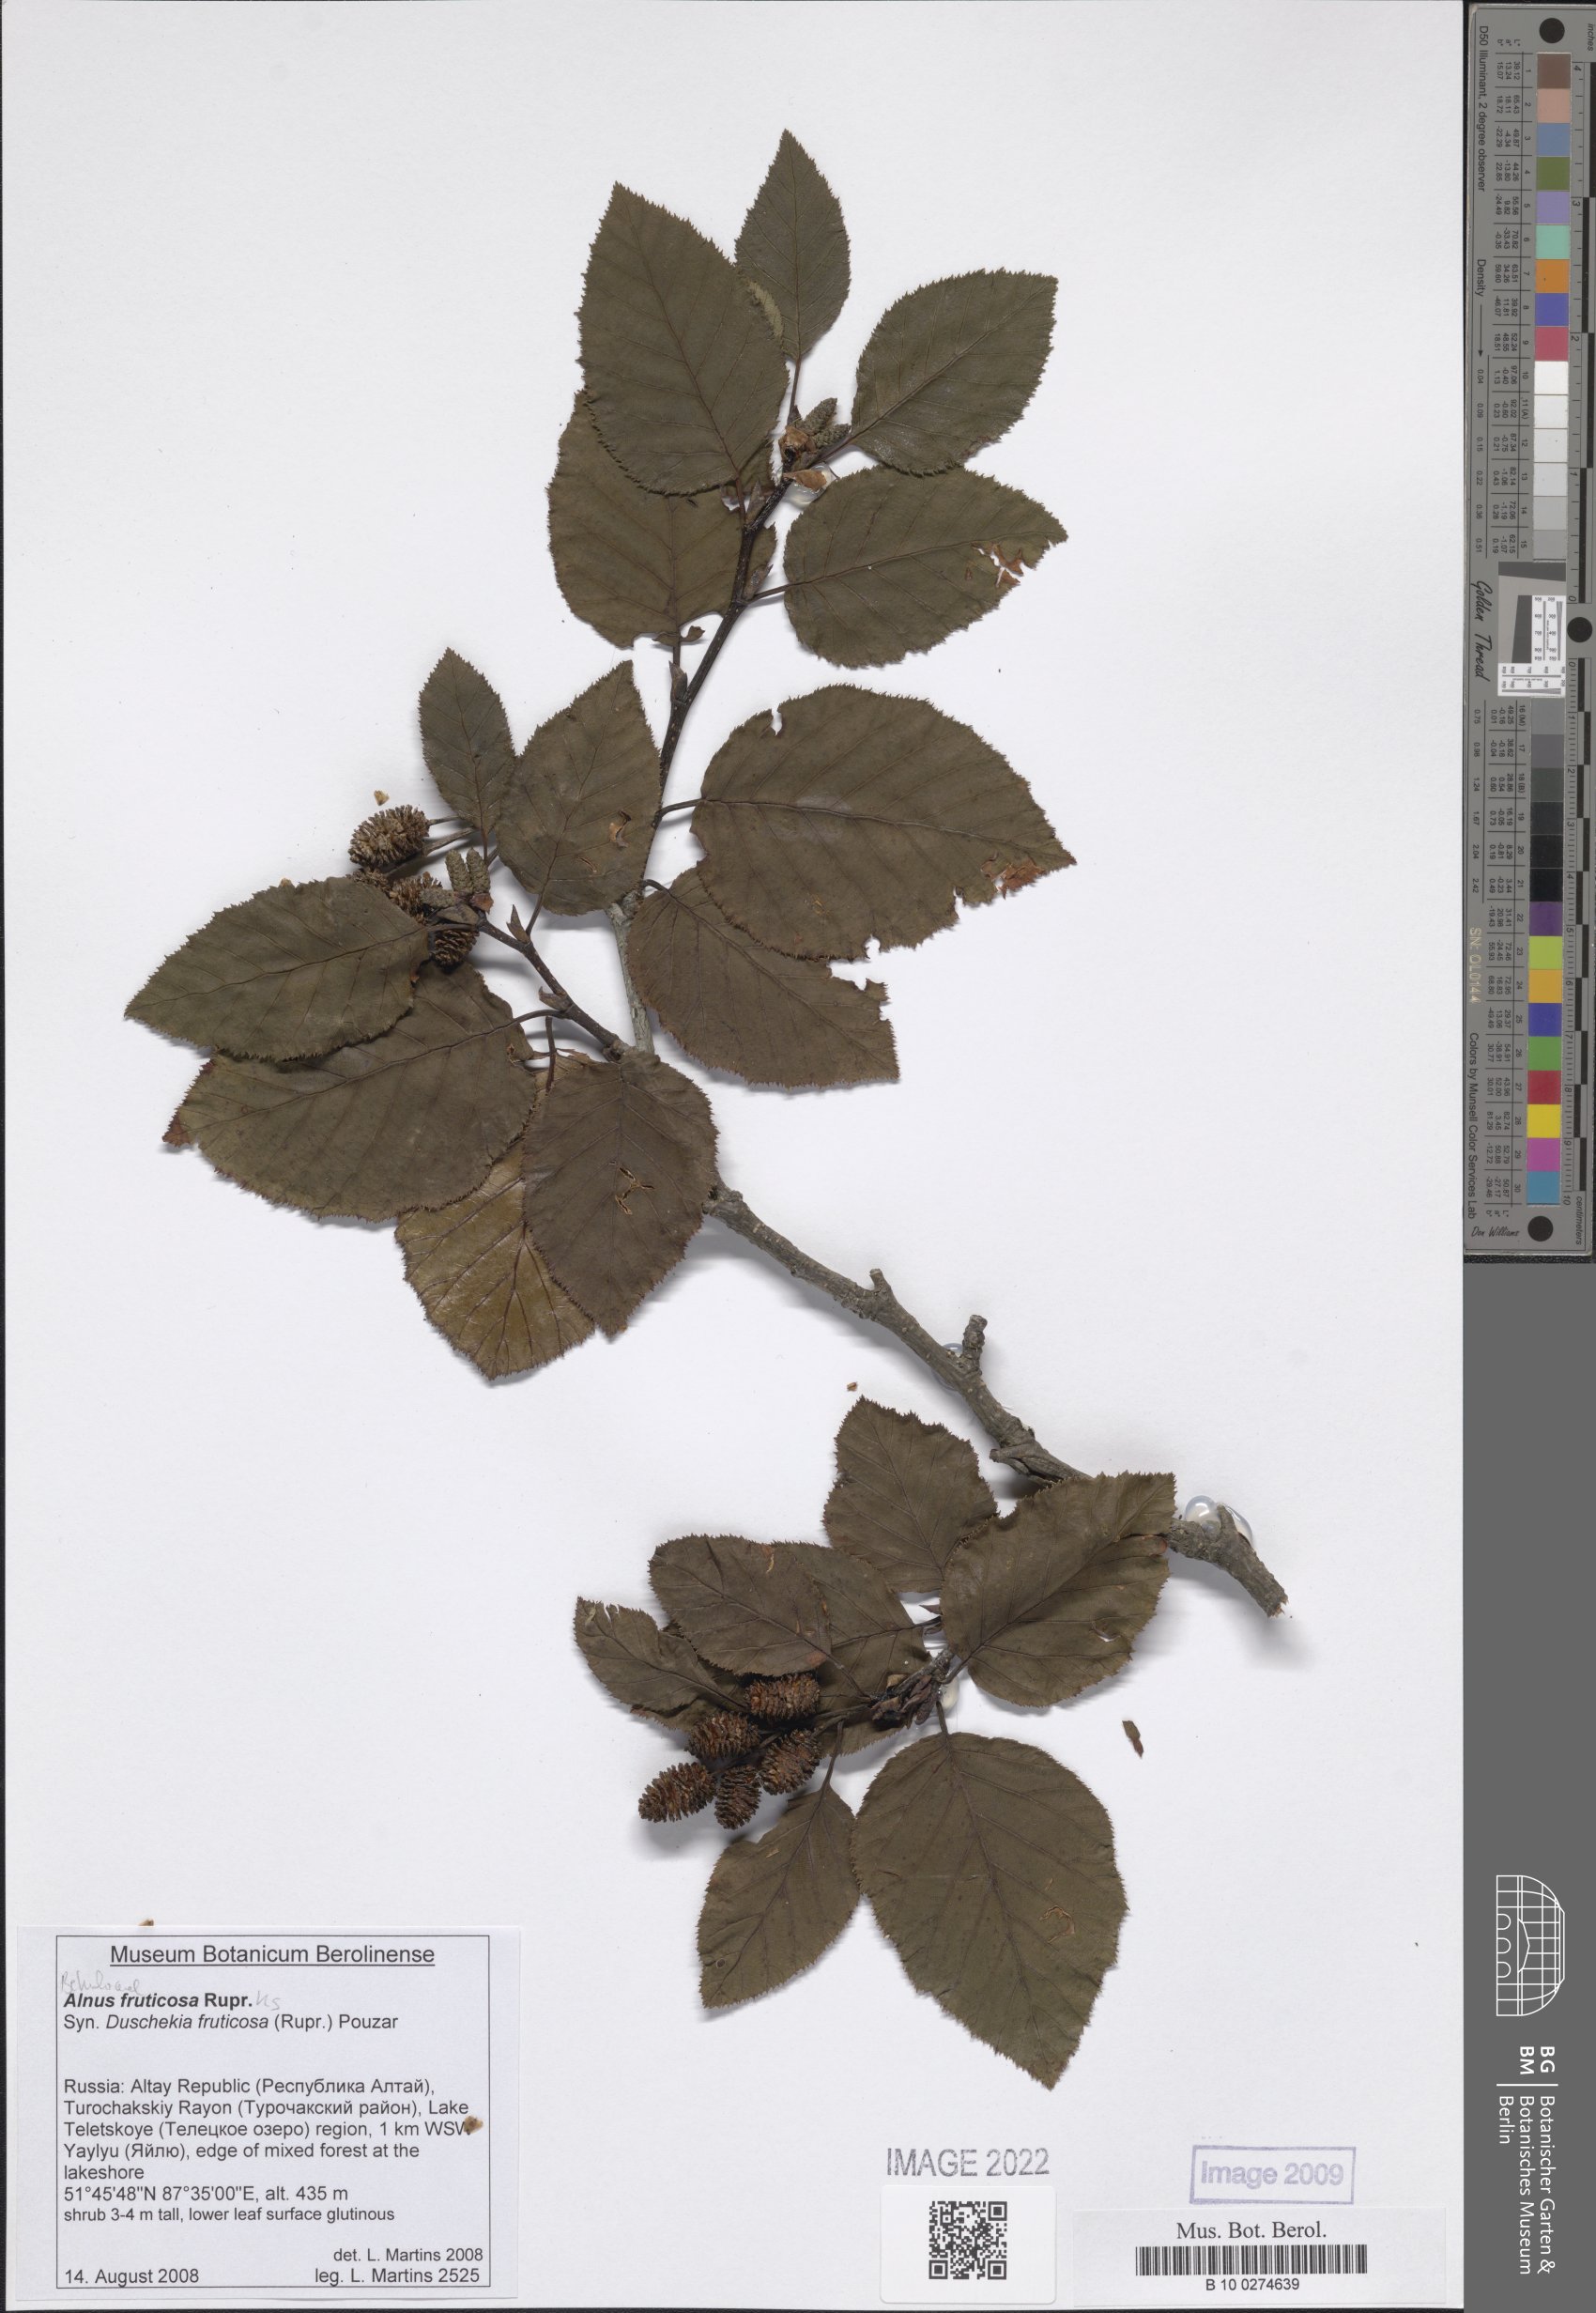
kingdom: Plantae
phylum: Tracheophyta
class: Magnoliopsida
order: Fagales
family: Betulaceae
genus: Alnus
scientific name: Alnus alnobetula
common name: Green alder
